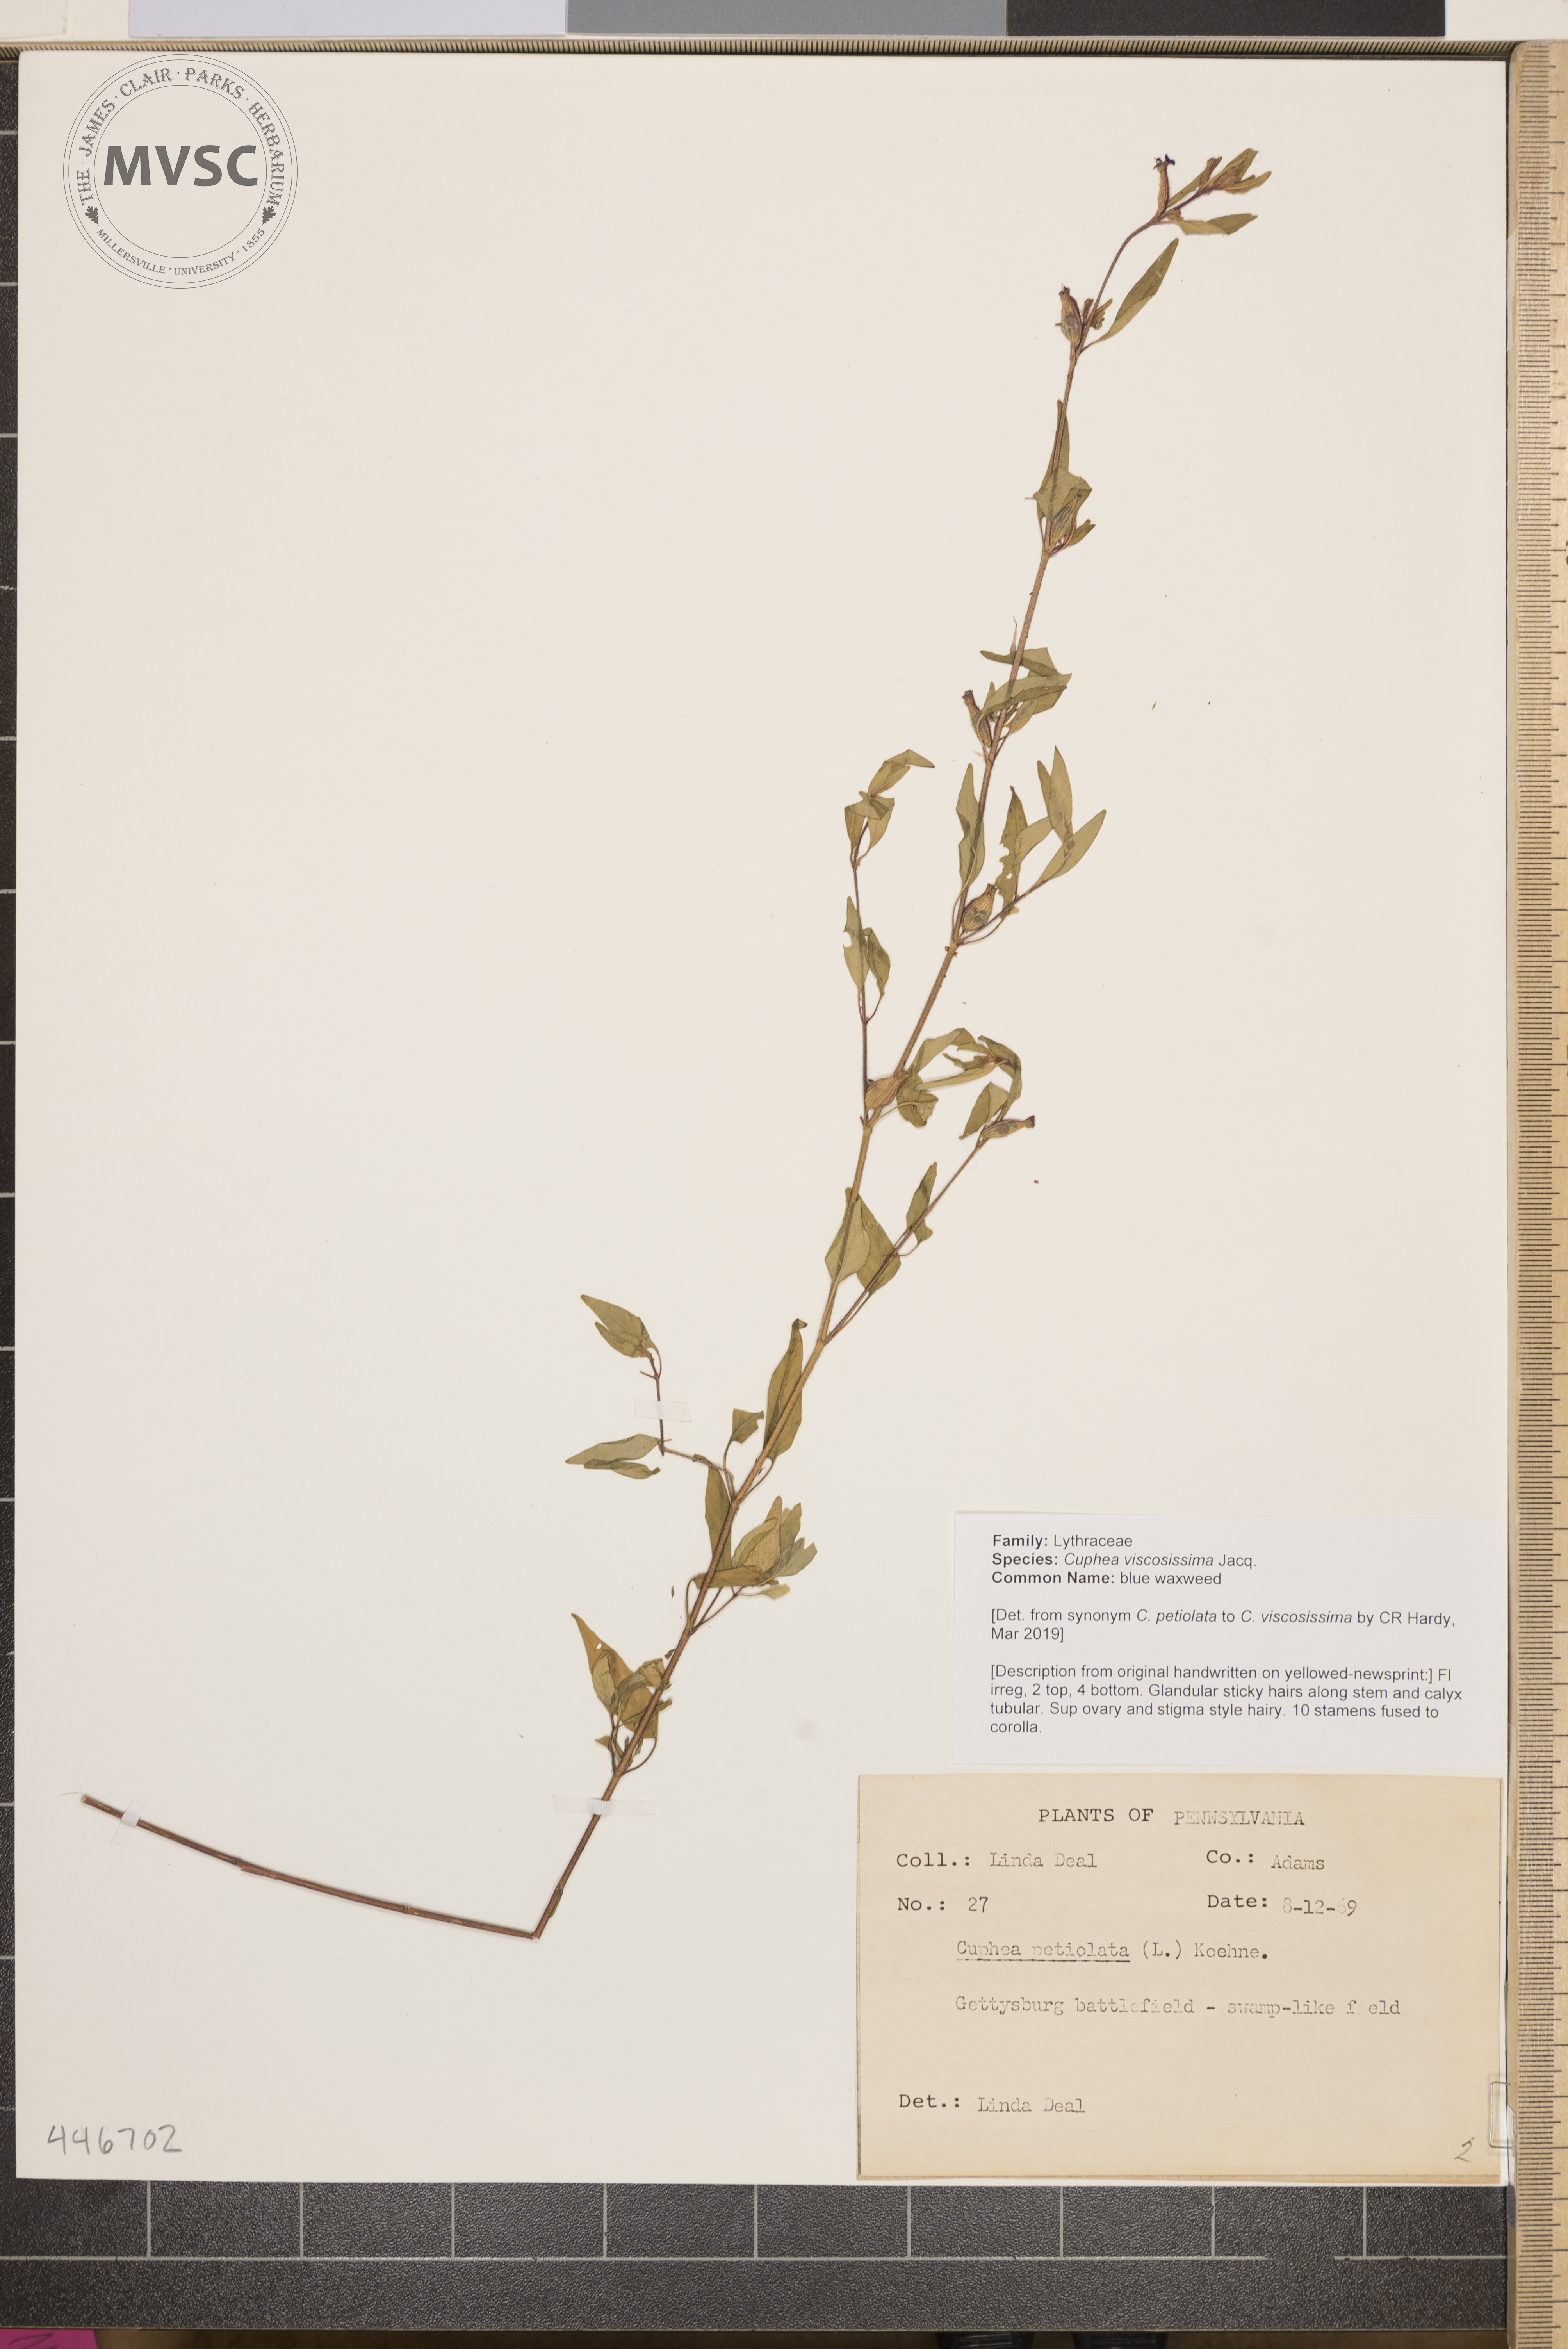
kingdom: Plantae
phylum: Tracheophyta
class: Magnoliopsida
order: Myrtales
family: Lythraceae
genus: Cuphea
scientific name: Cuphea viscosissima
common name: blue waxweed
